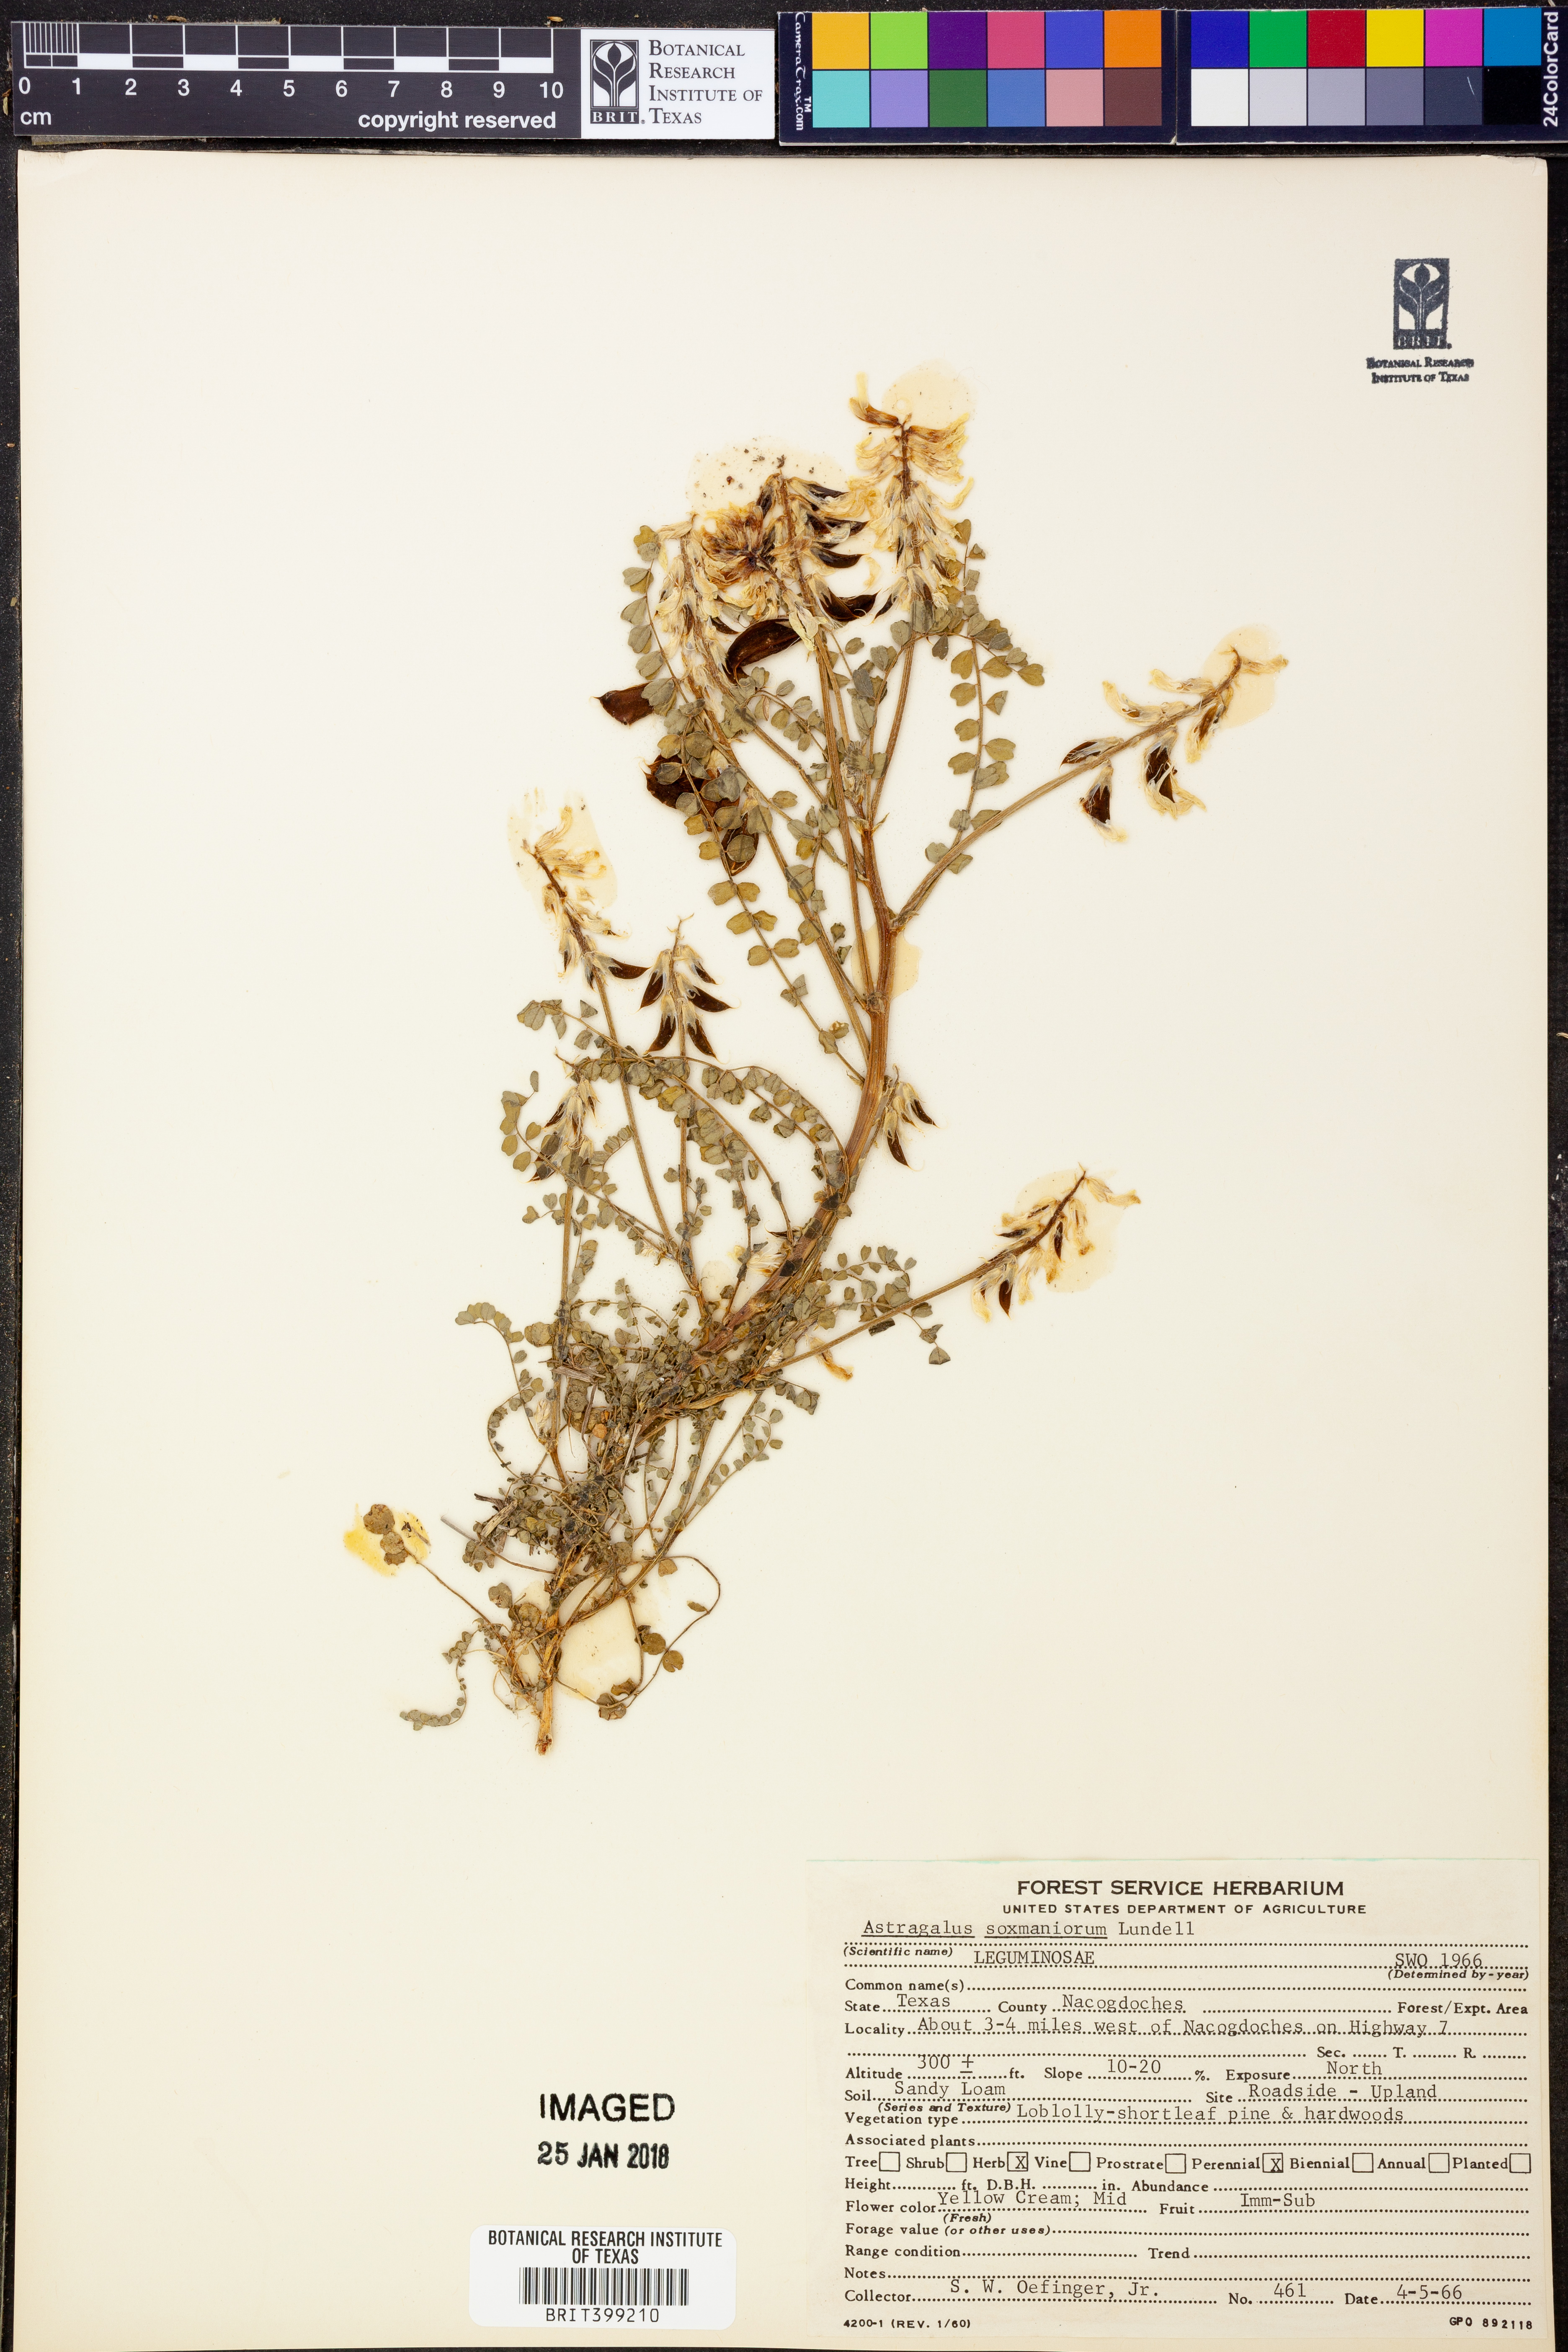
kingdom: Plantae
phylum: Tracheophyta
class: Magnoliopsida
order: Fabales
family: Fabaceae
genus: Astragalus
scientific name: Astragalus soxmaniorum
